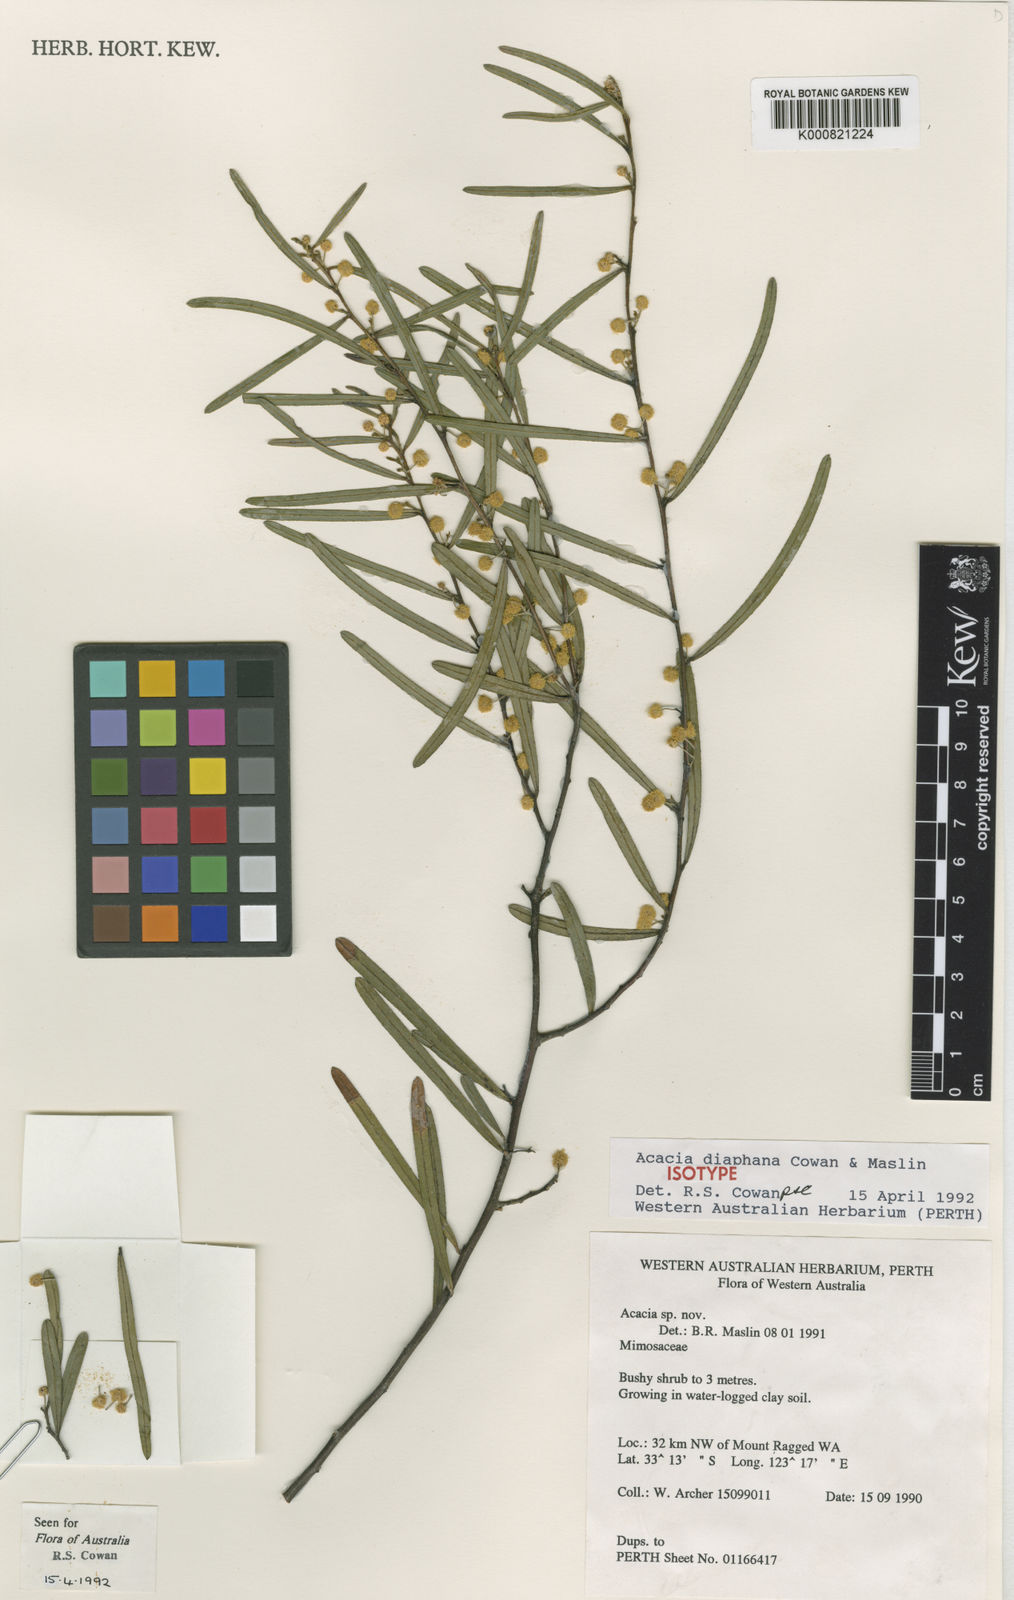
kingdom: Plantae
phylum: Tracheophyta
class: Magnoliopsida
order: Fabales
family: Fabaceae
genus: Acacia
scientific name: Acacia diaphana
